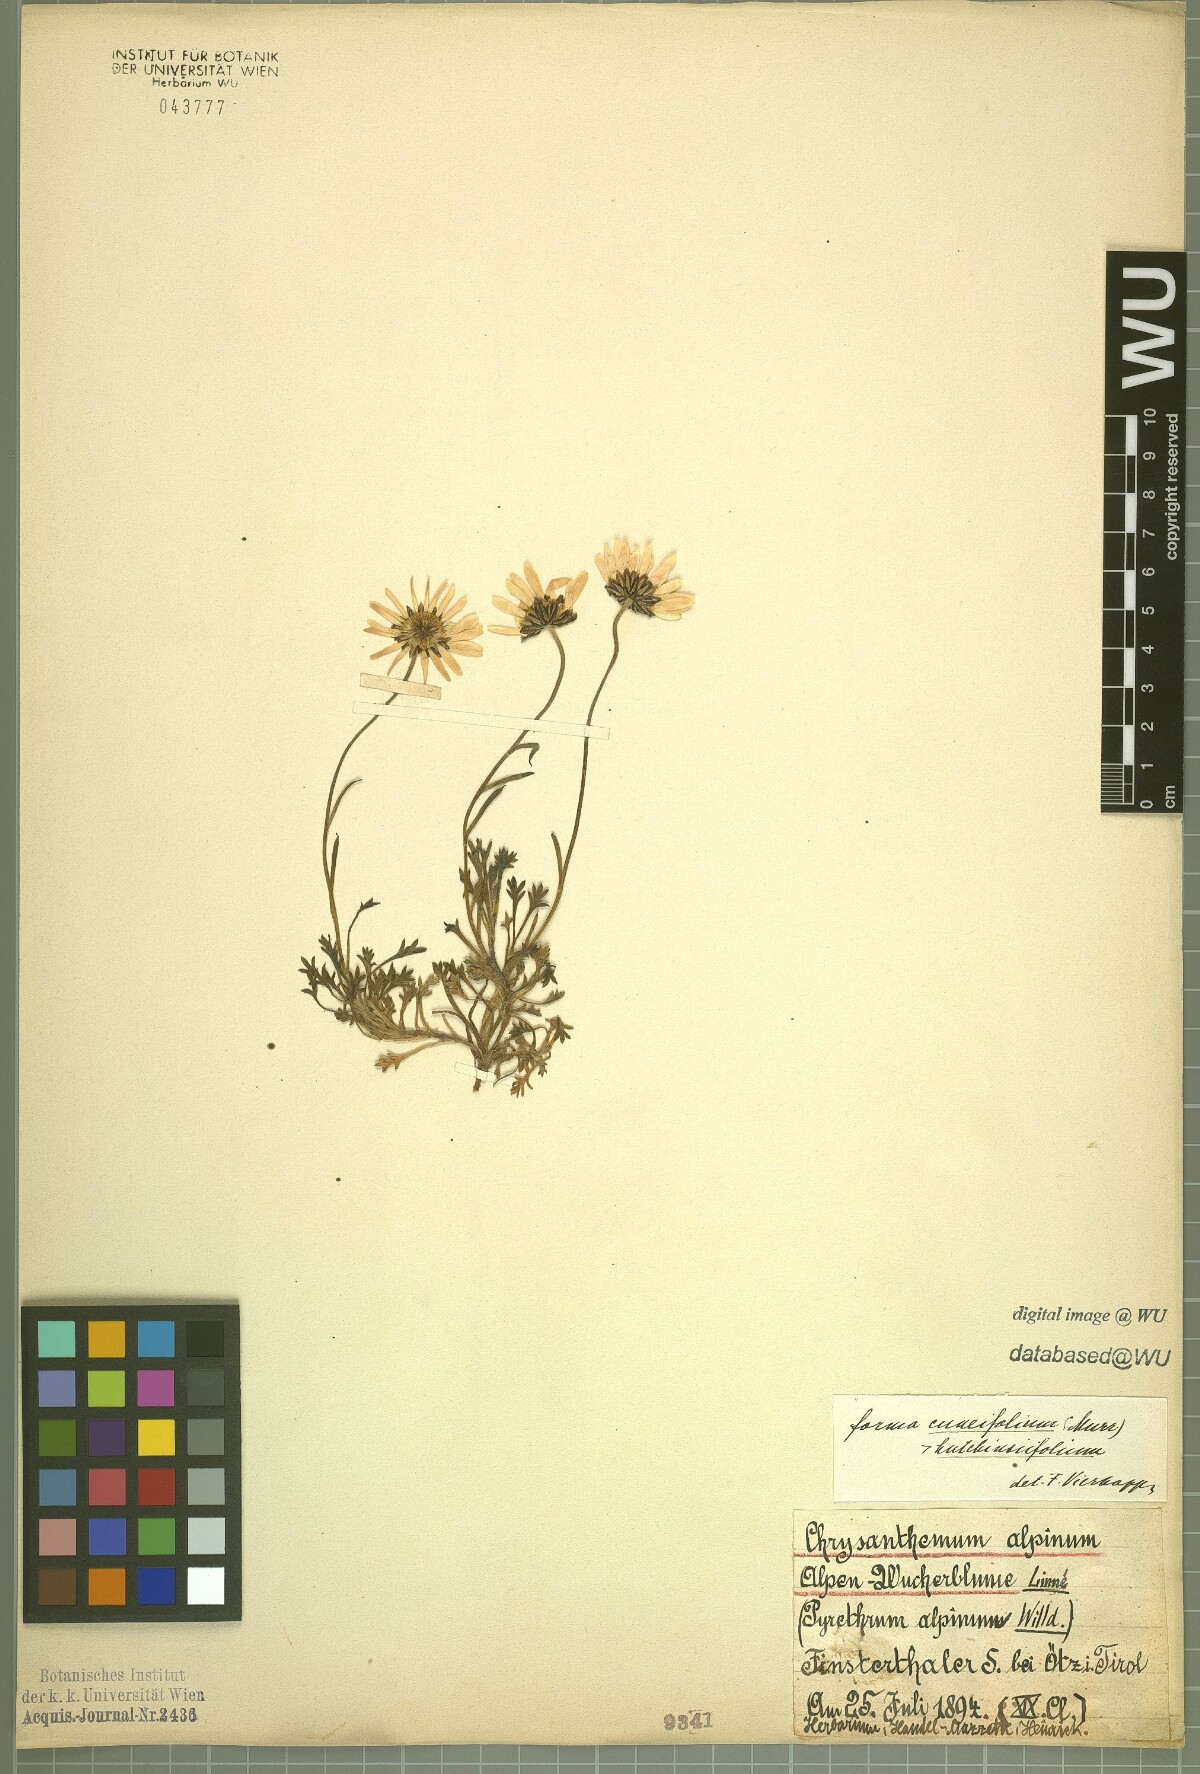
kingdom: Plantae
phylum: Tracheophyta
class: Magnoliopsida
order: Asterales
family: Asteraceae
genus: Leucanthemopsis
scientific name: Leucanthemopsis alpina
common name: Alpine moon daisy
